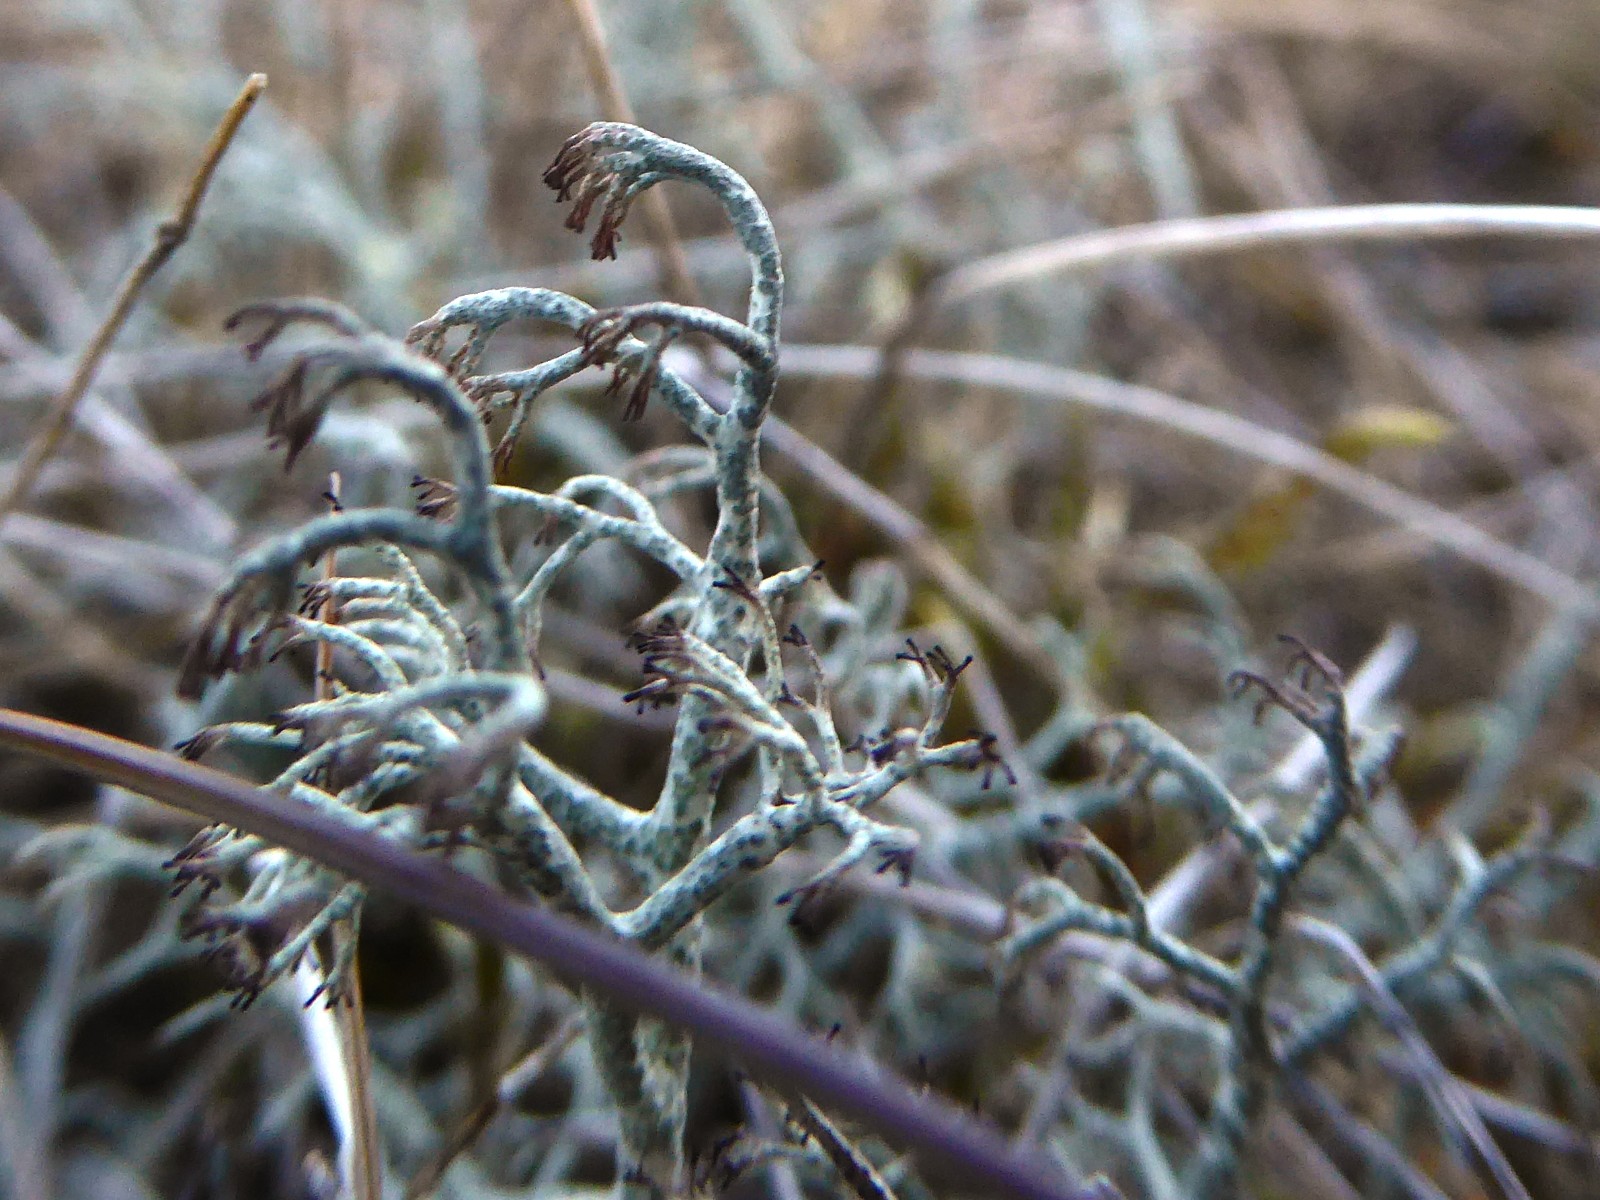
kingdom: Fungi
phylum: Ascomycota
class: Lecanoromycetes
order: Lecanorales
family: Cladoniaceae
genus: Cladonia
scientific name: Cladonia ciliata
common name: spinkel rensdyrlav
